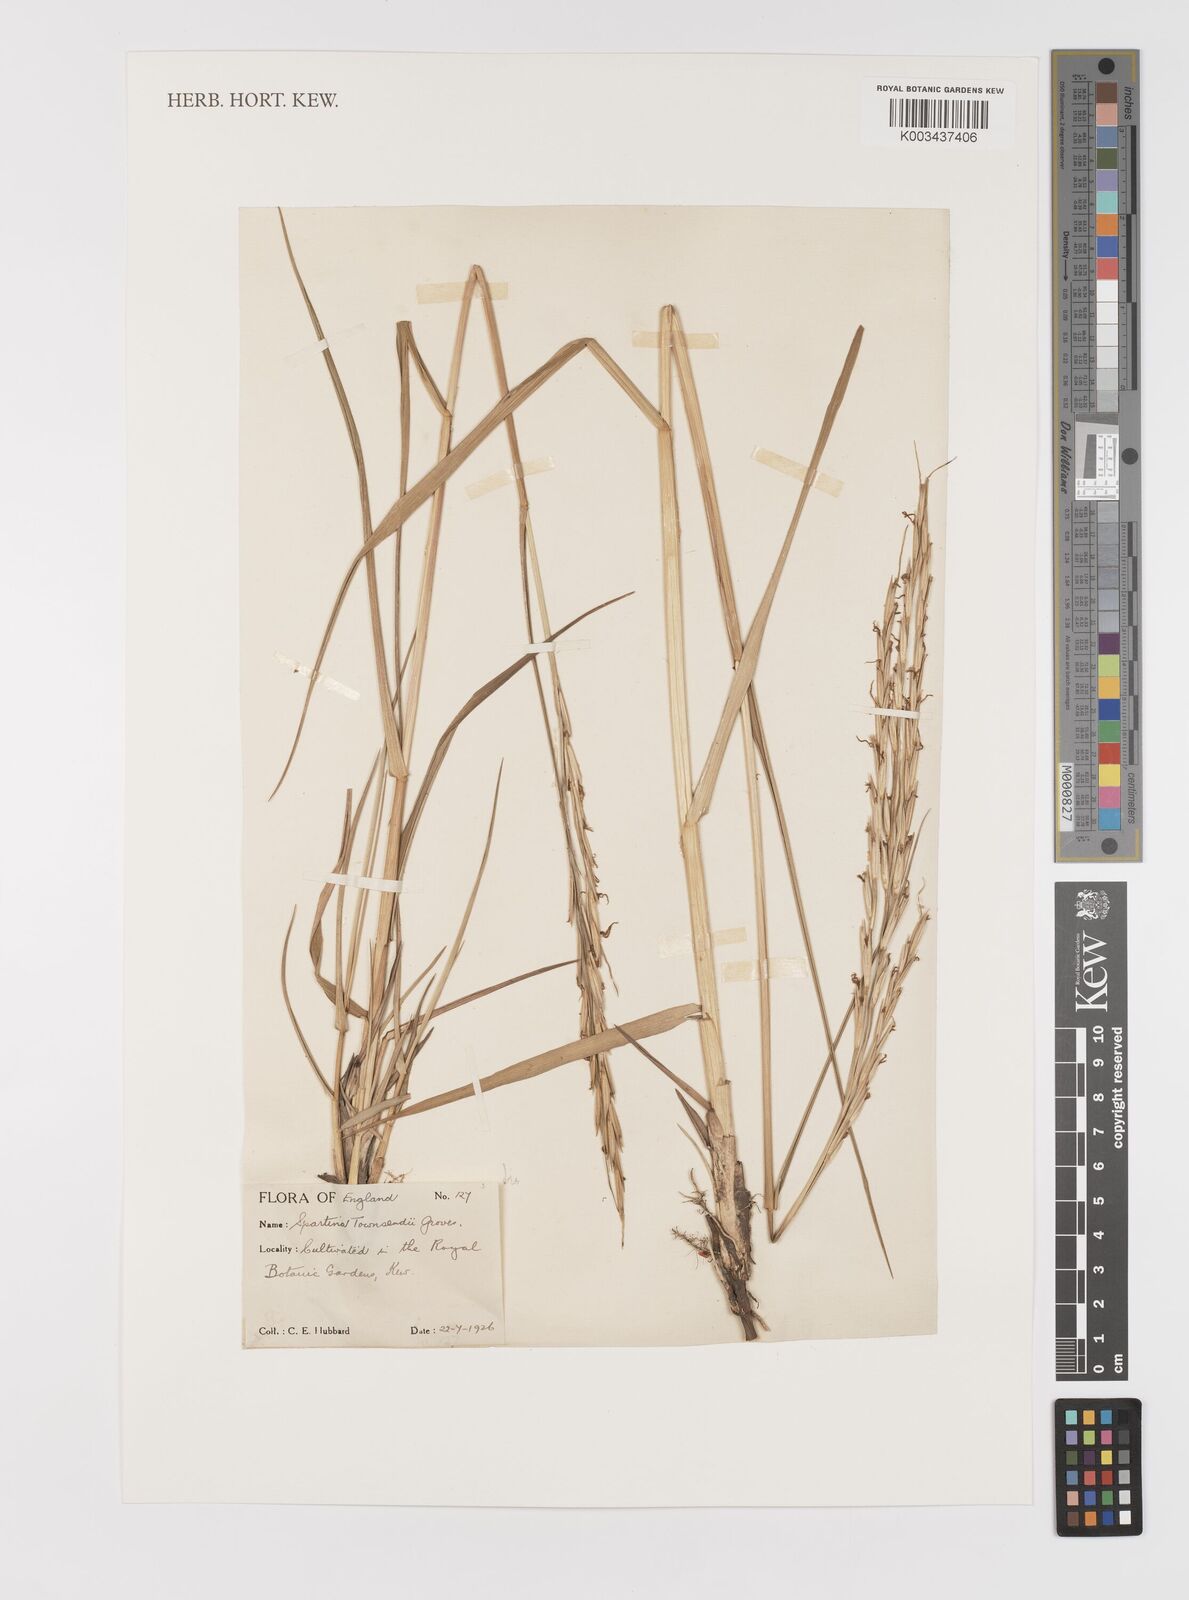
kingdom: Plantae
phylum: Tracheophyta
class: Liliopsida
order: Poales
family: Poaceae
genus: Sporobolus
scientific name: Sporobolus townsendii
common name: Townsend's cordgrass
